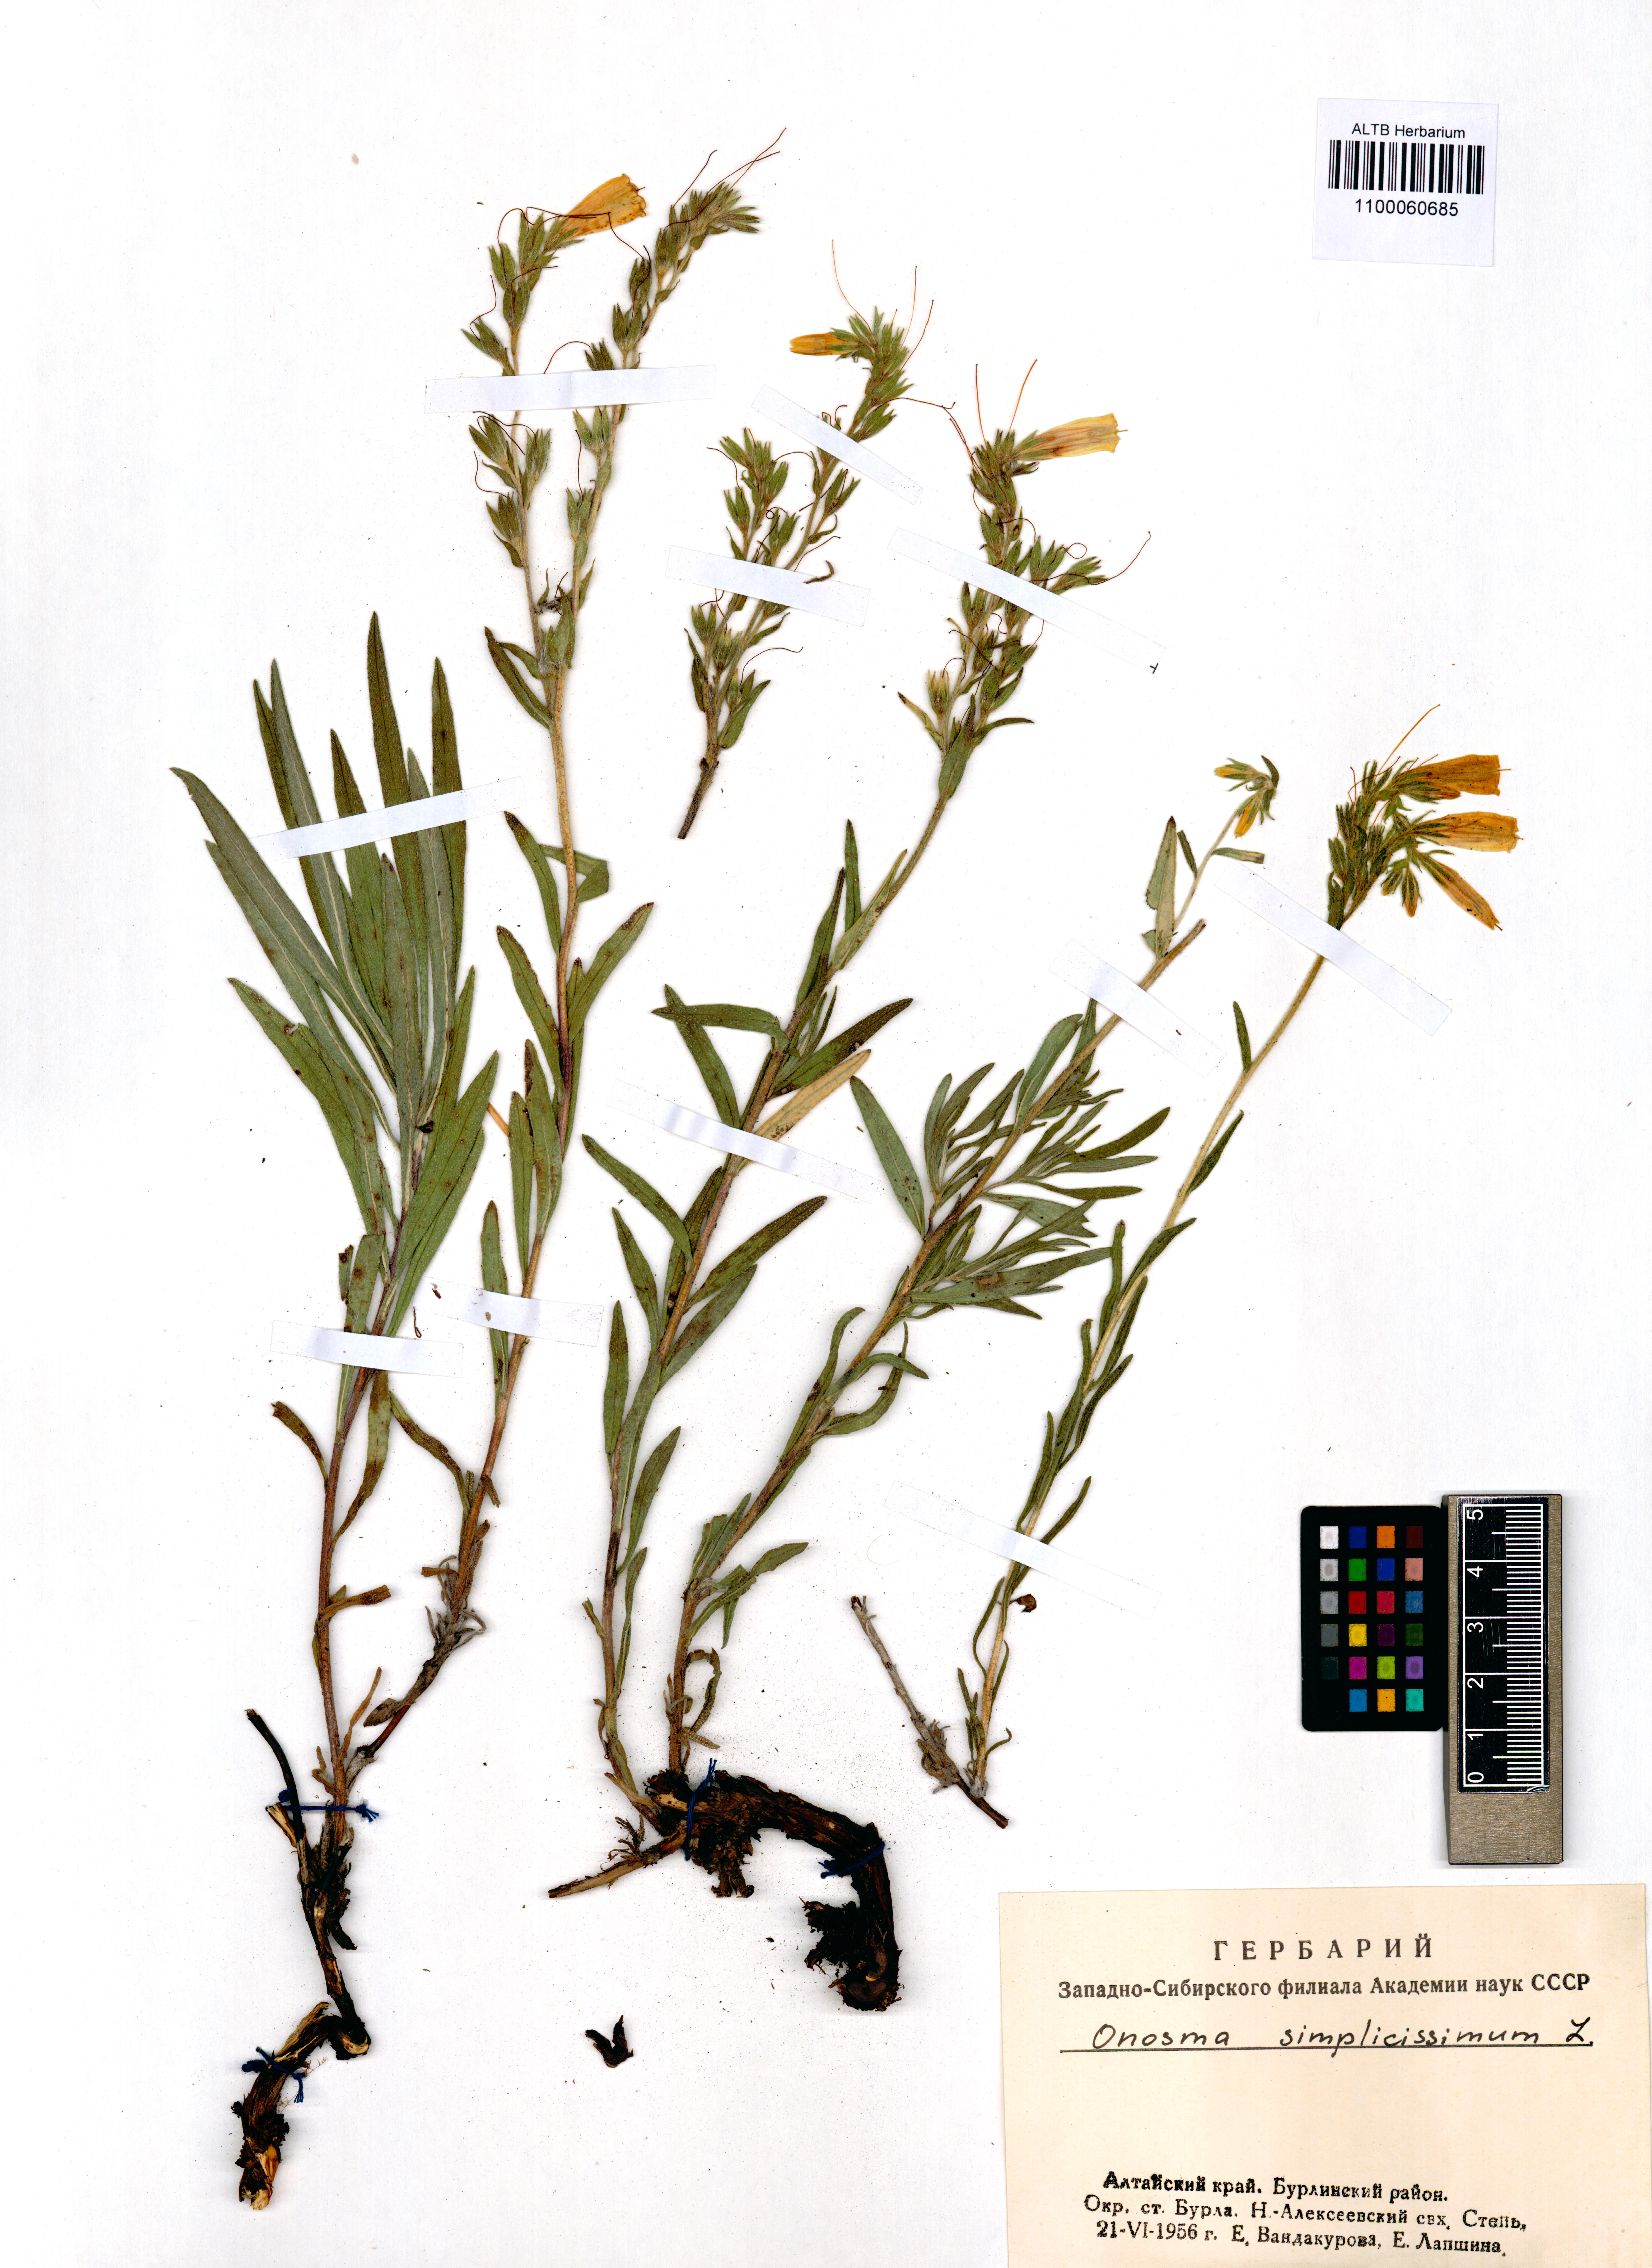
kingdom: Plantae
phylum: Tracheophyta
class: Magnoliopsida
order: Boraginales
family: Boraginaceae
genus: Onosma
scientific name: Onosma simplicissima
